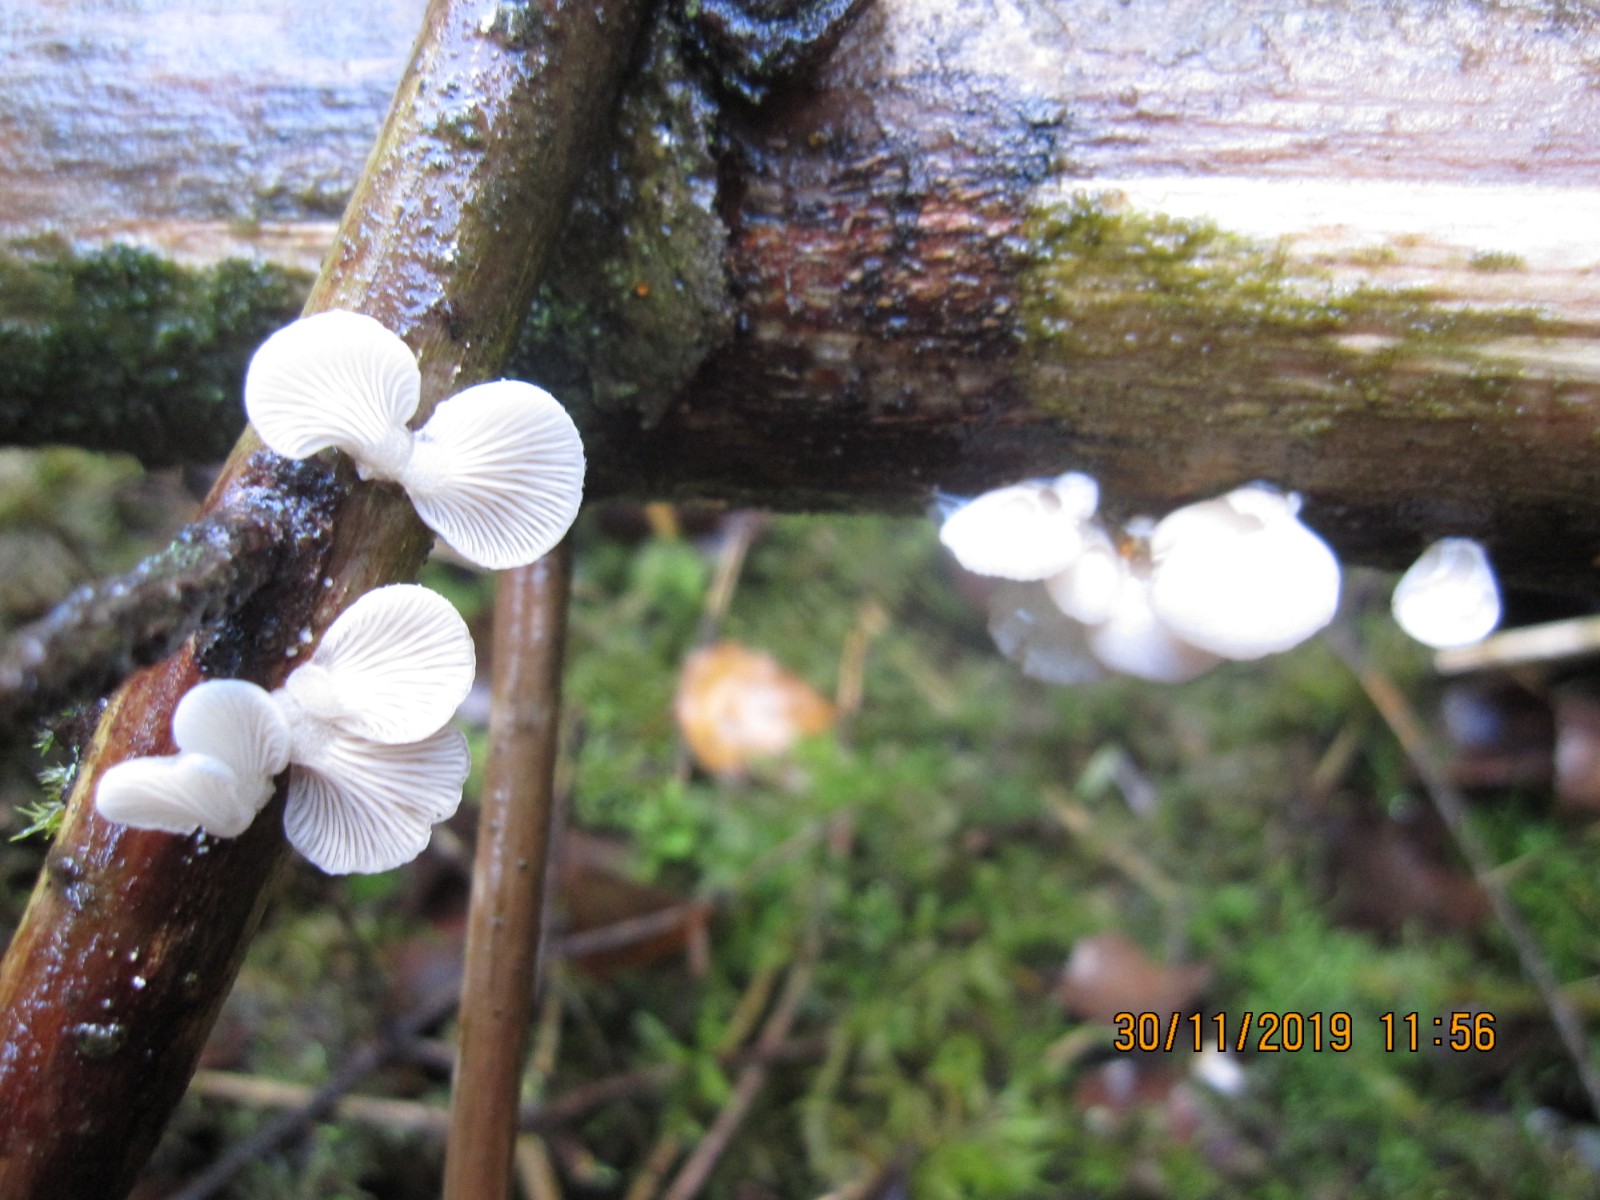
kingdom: Fungi
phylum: Basidiomycota
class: Agaricomycetes
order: Agaricales
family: Mycenaceae
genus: Panellus
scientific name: Panellus mitis
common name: mild epaulethat
